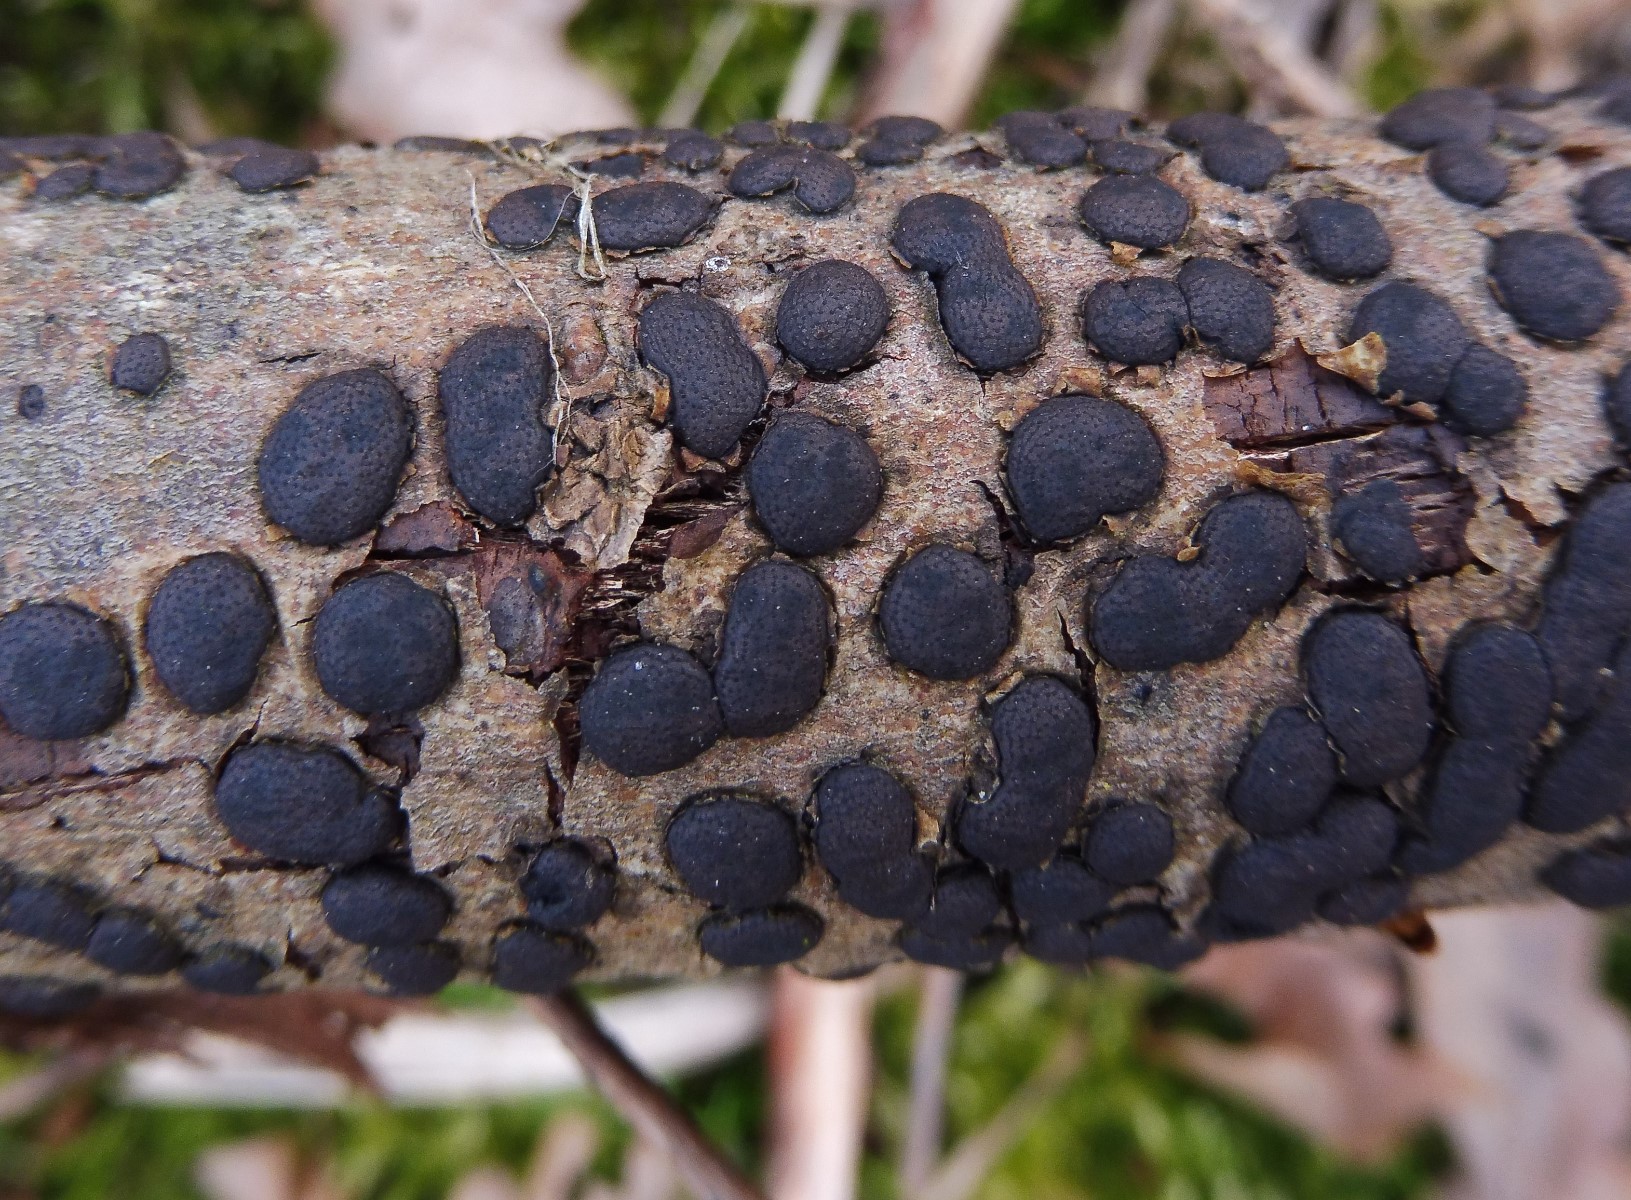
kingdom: Fungi
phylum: Ascomycota
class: Sordariomycetes
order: Xylariales
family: Diatrypaceae
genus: Diatrype
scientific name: Diatrype bullata
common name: pile-kulskorpe
